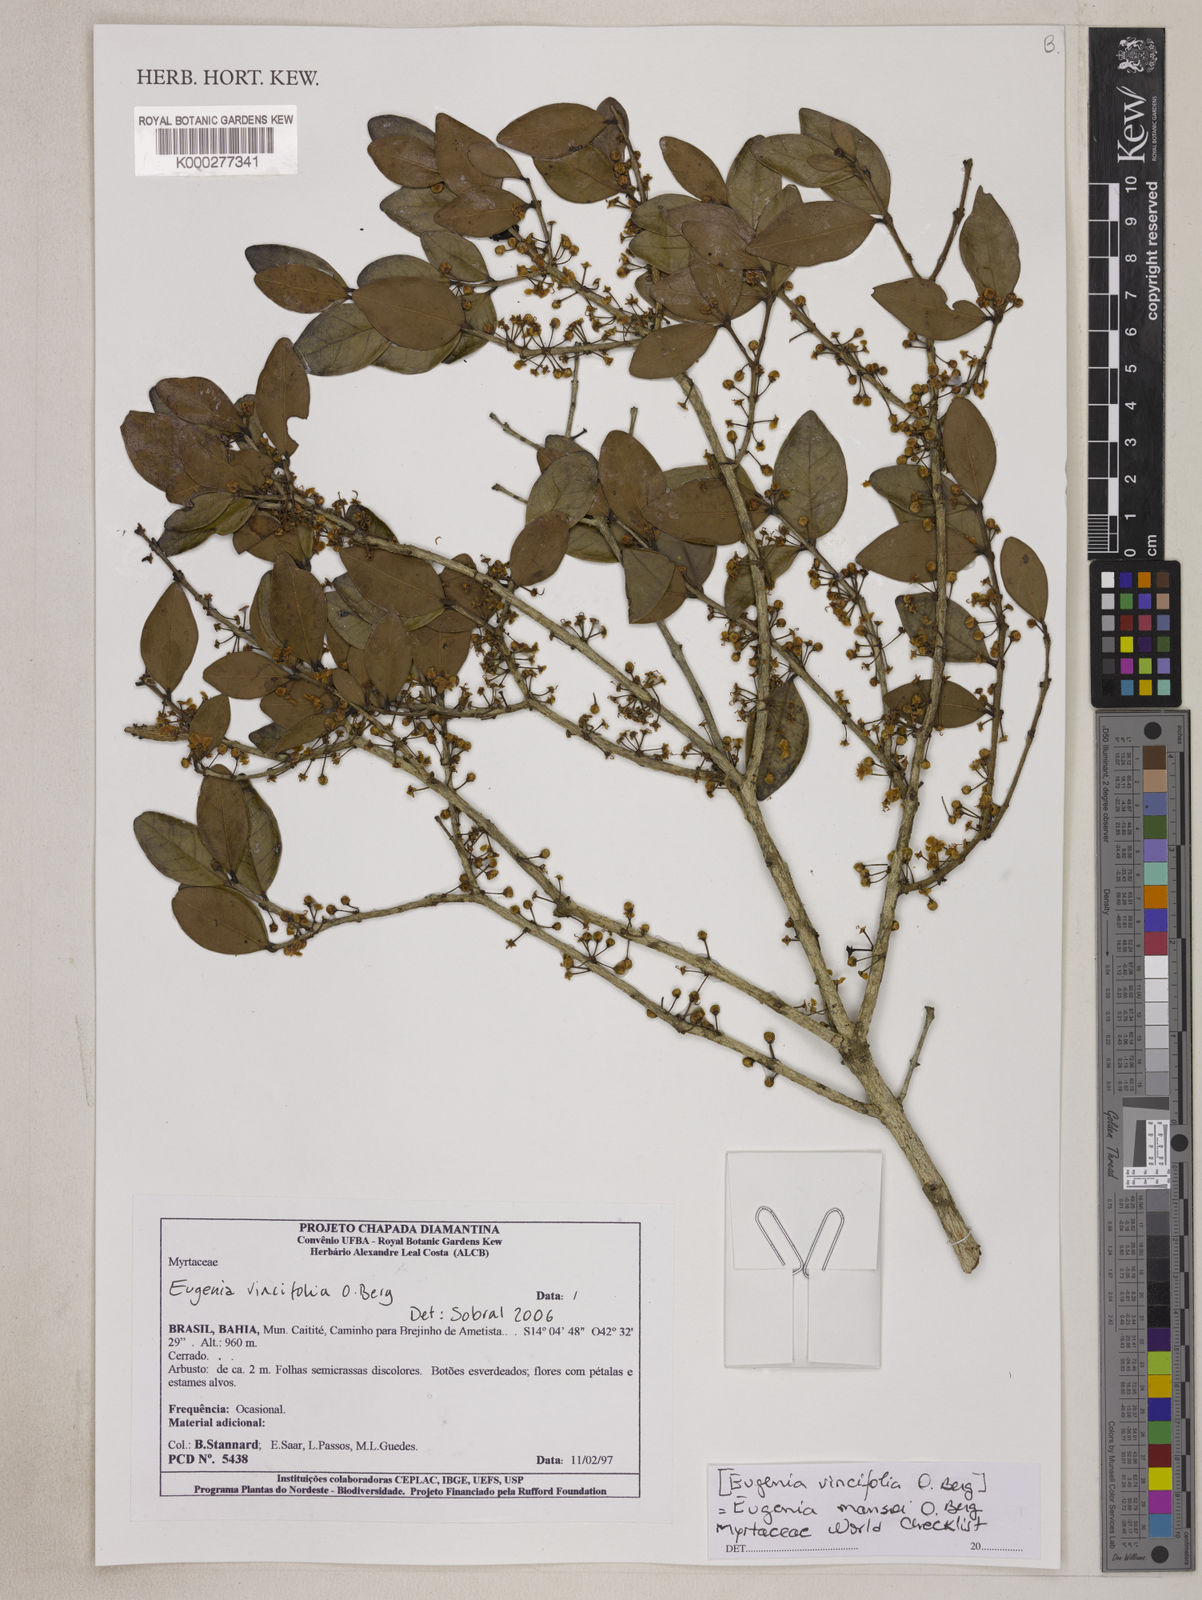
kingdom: Plantae
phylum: Tracheophyta
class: Magnoliopsida
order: Myrtales
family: Myrtaceae
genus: Eugenia
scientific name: Eugenia mansoi
